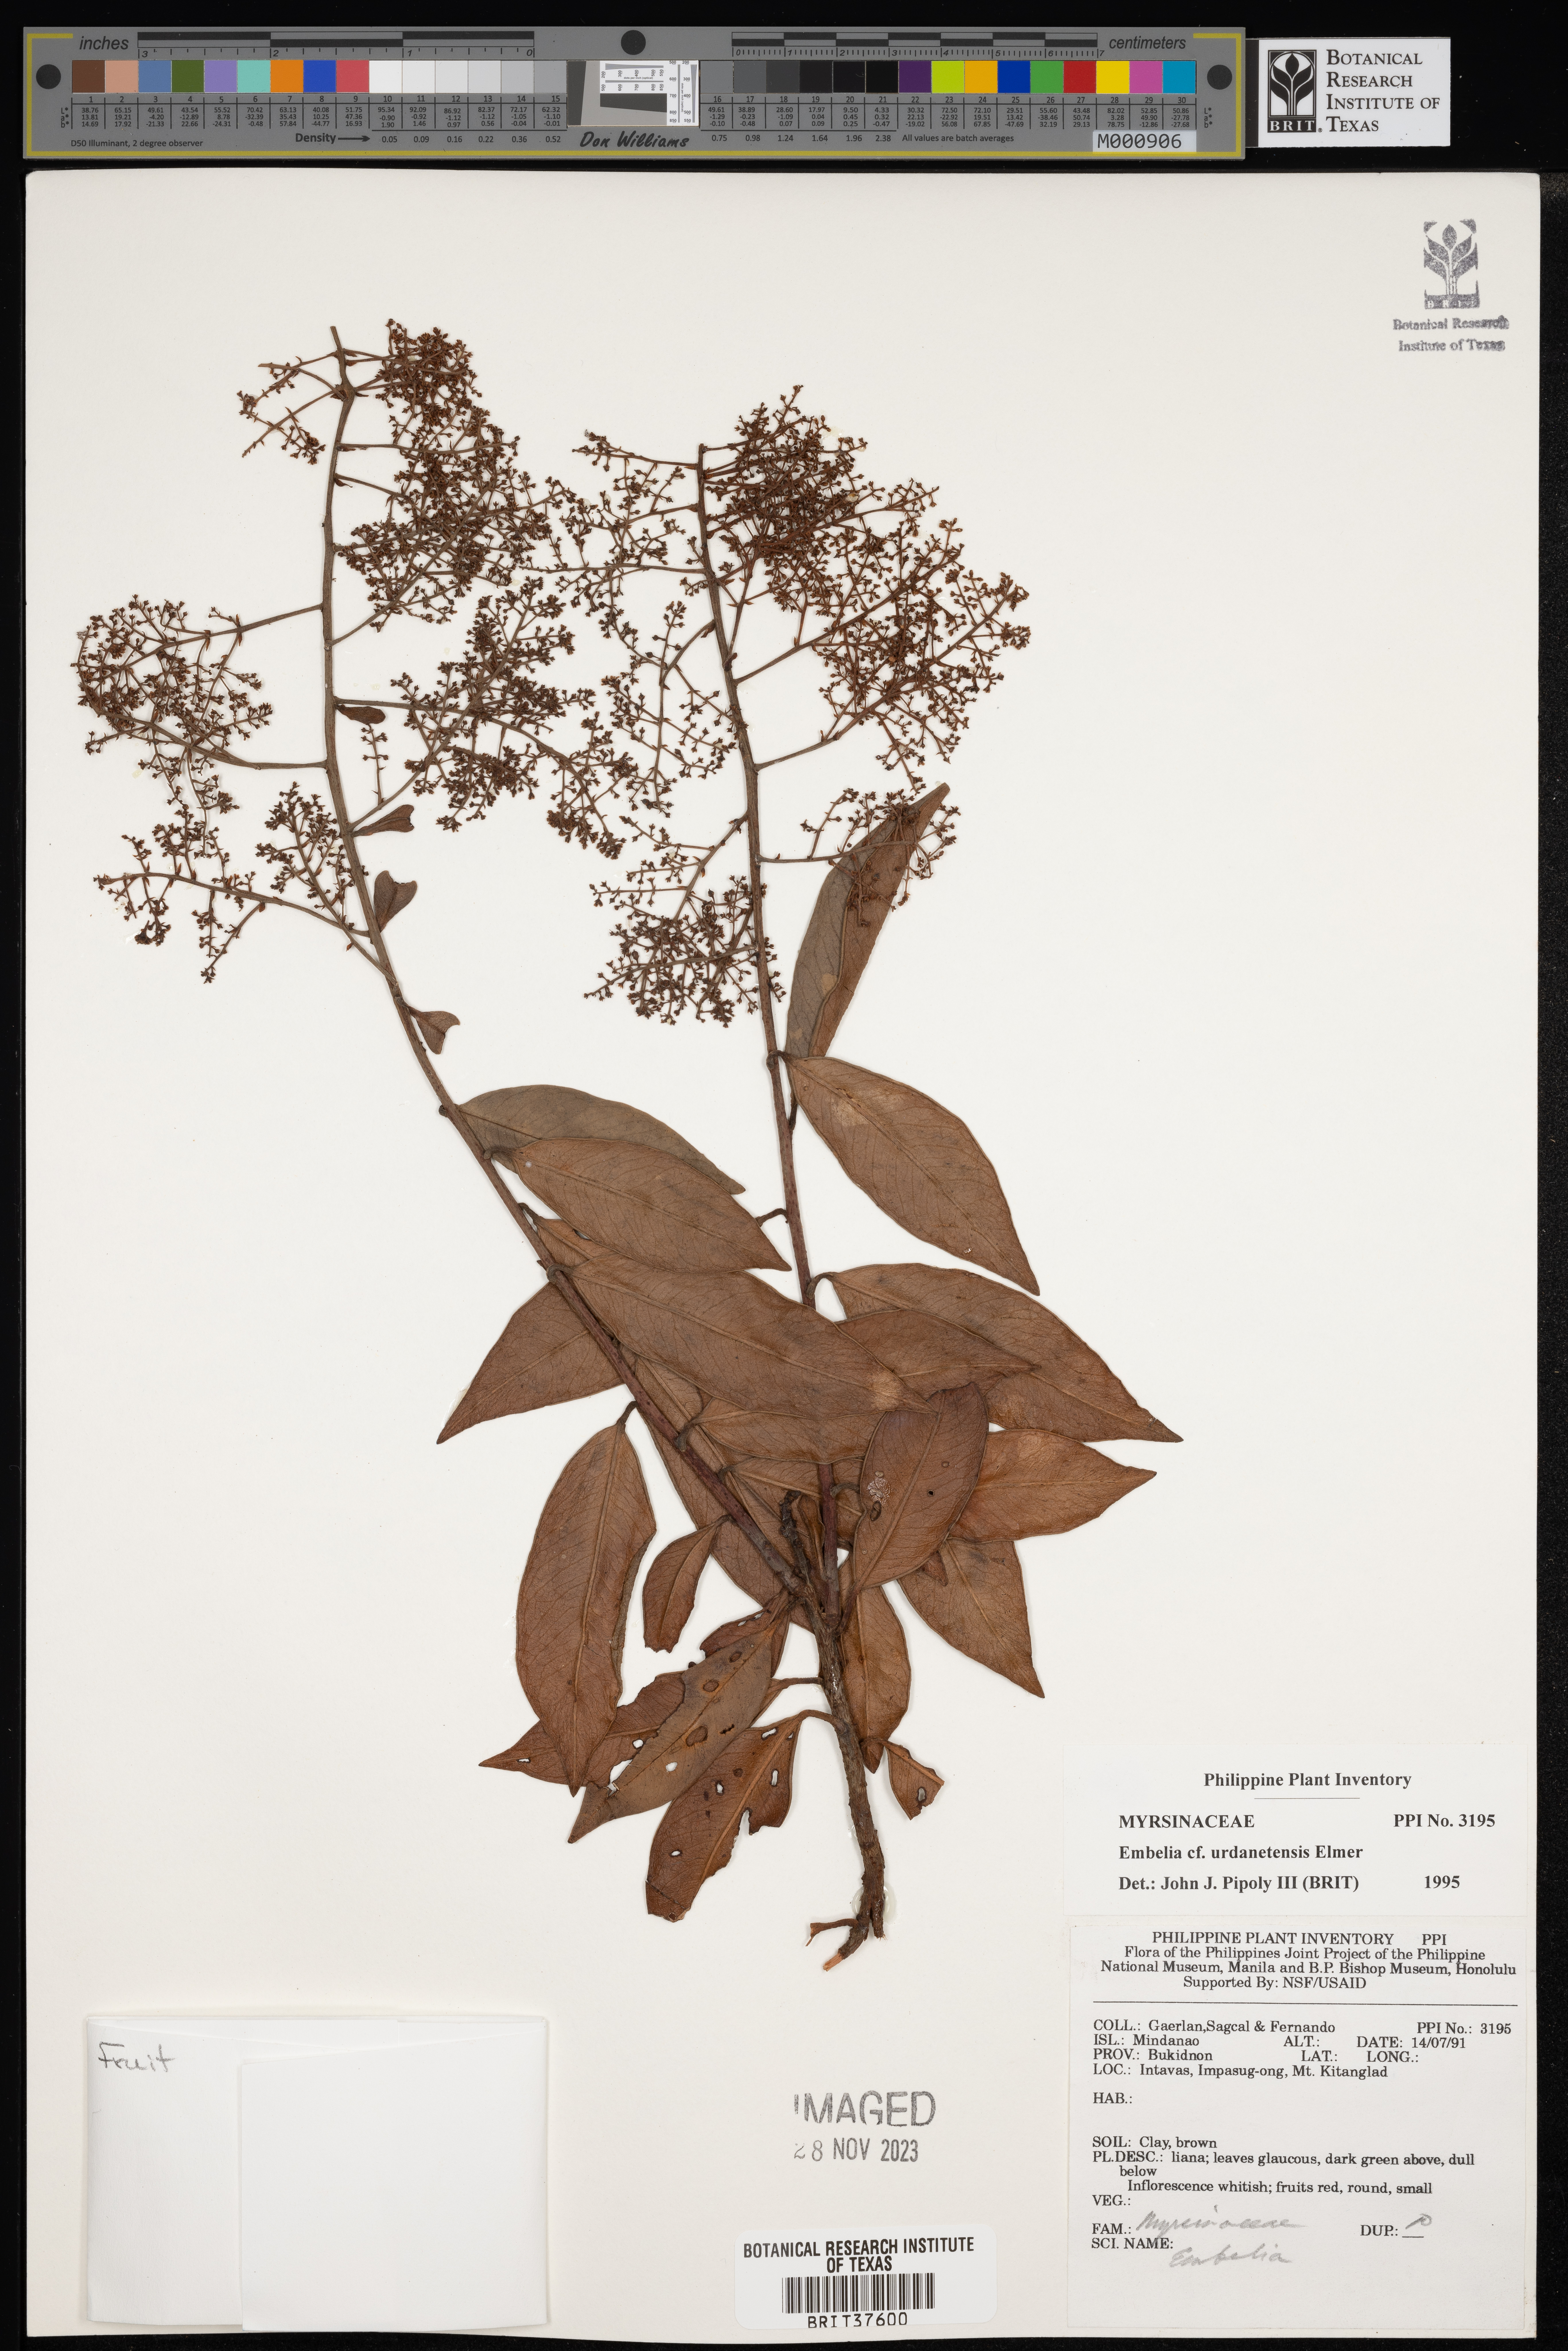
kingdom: Plantae
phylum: Tracheophyta
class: Magnoliopsida
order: Ericales
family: Primulaceae
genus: Embelia
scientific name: Embelia
